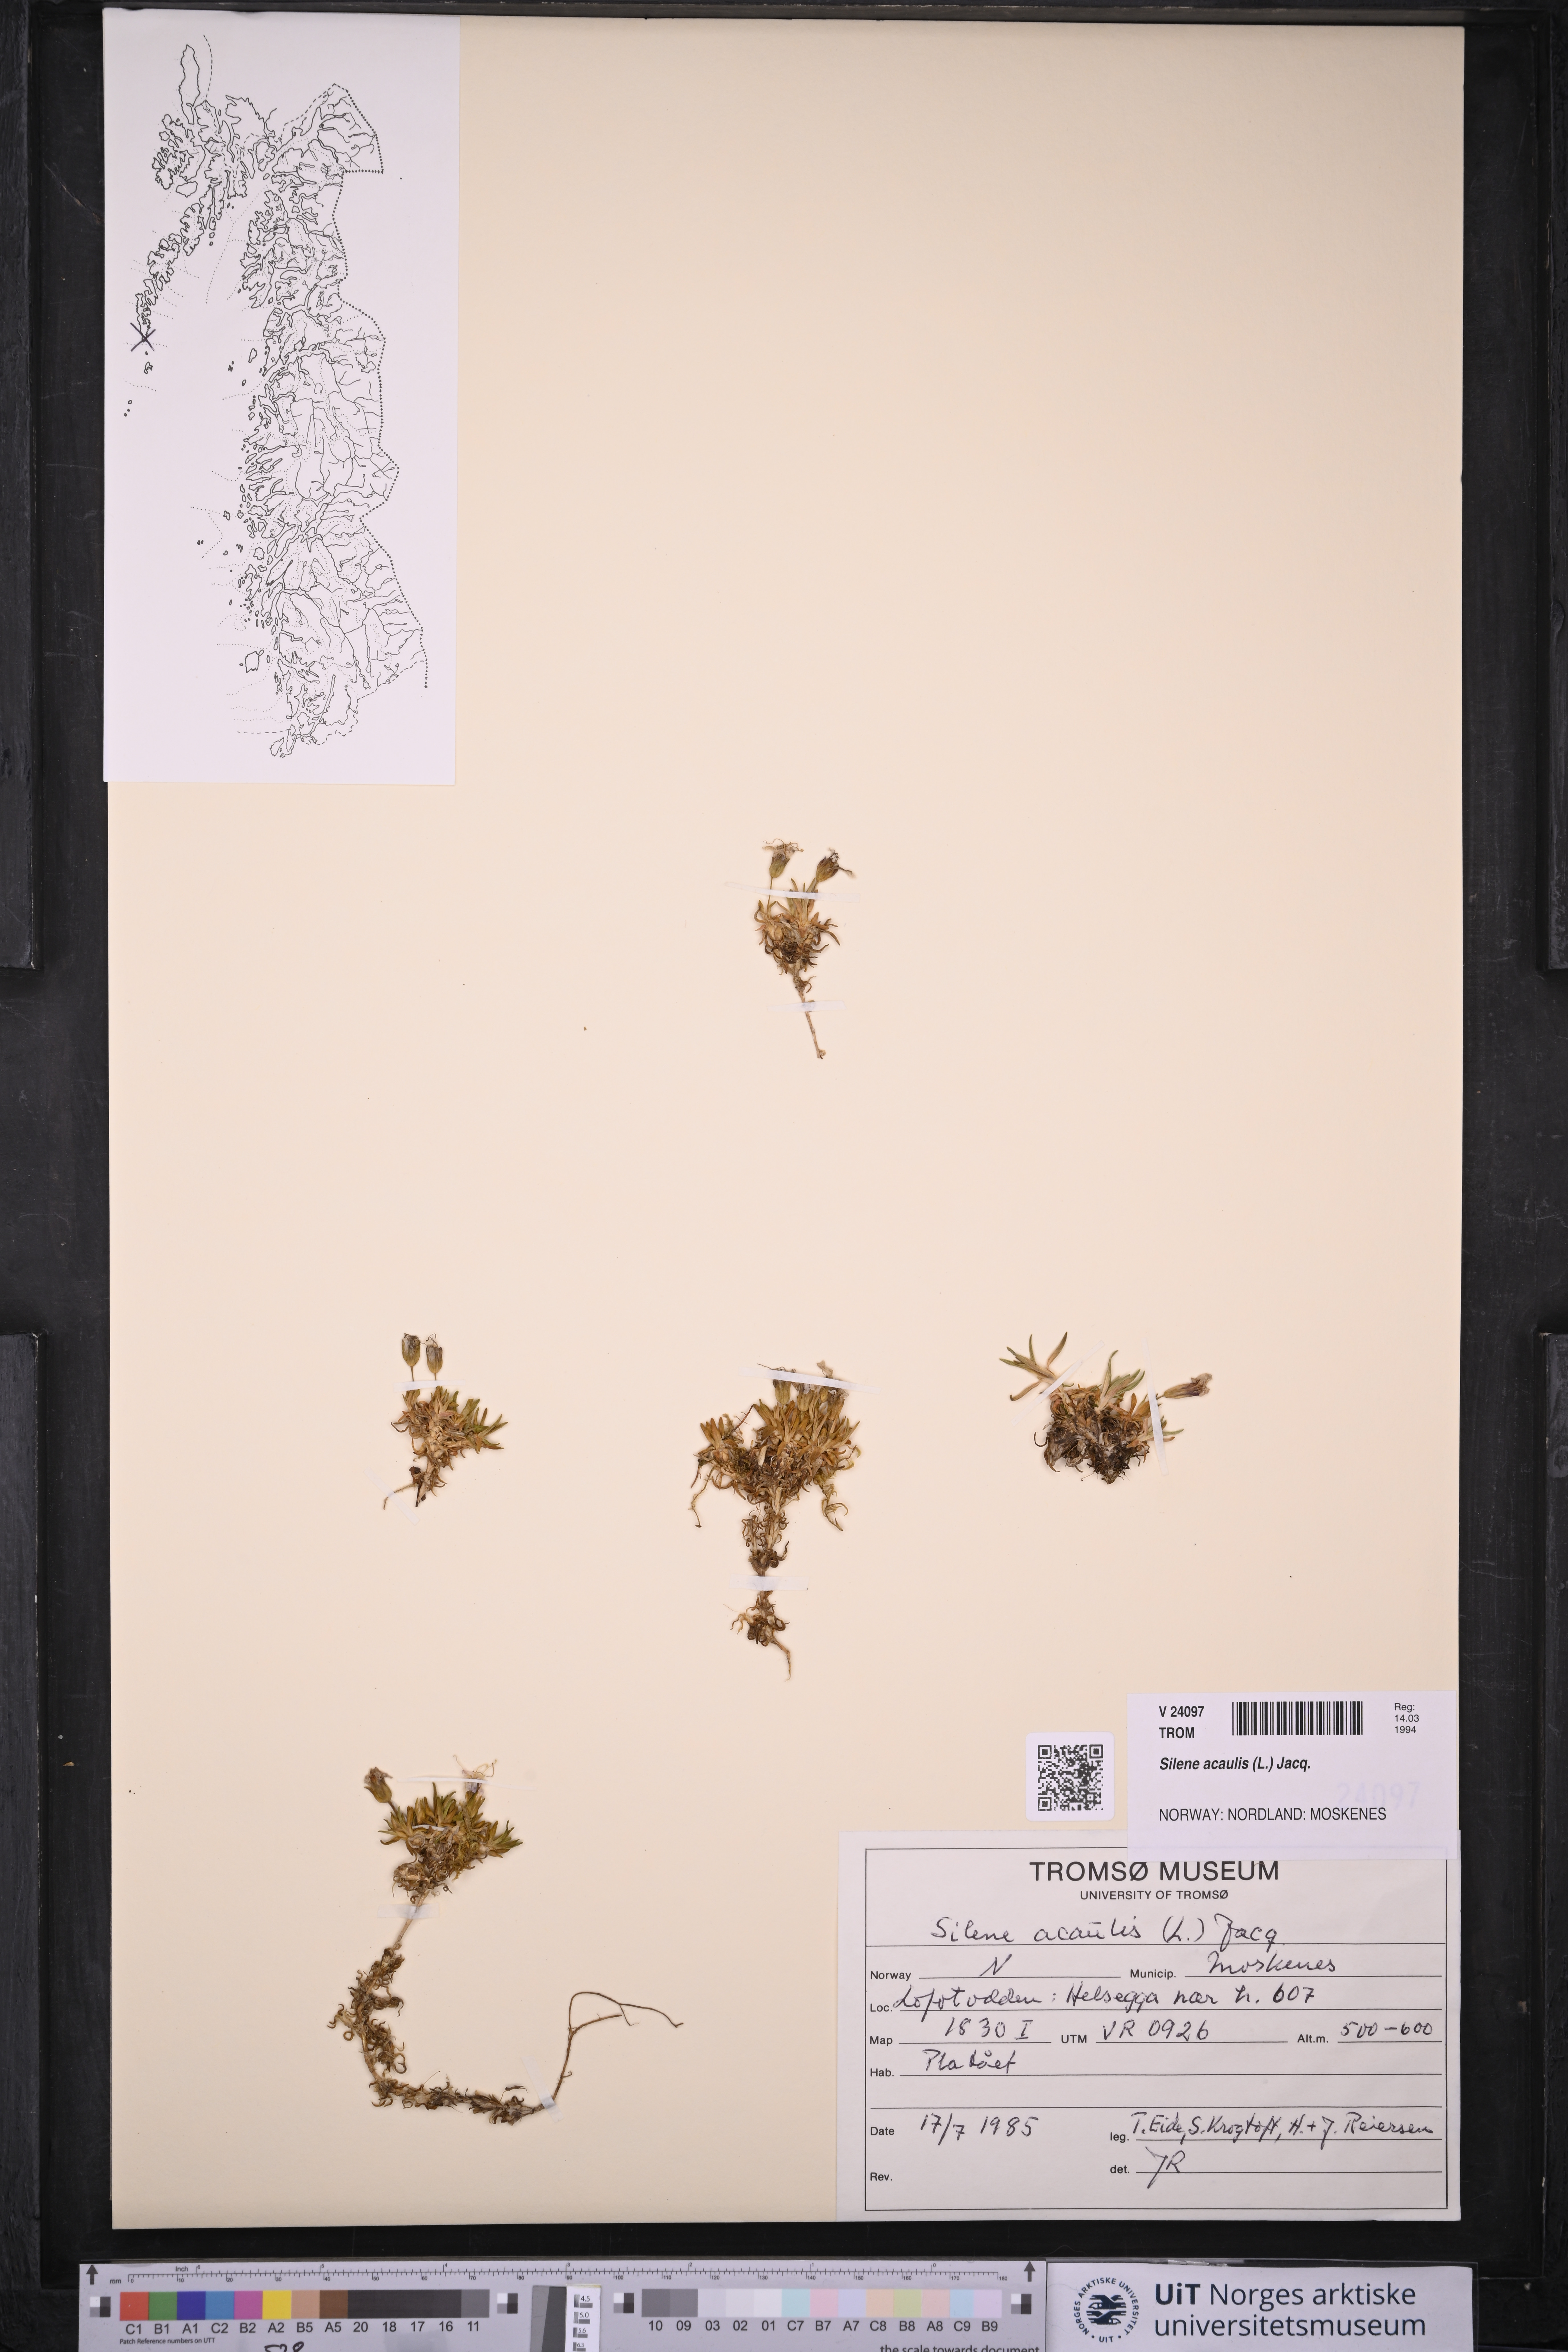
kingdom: Plantae
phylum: Tracheophyta
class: Magnoliopsida
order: Caryophyllales
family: Caryophyllaceae
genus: Silene
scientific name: Silene acaulis
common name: Moss campion
